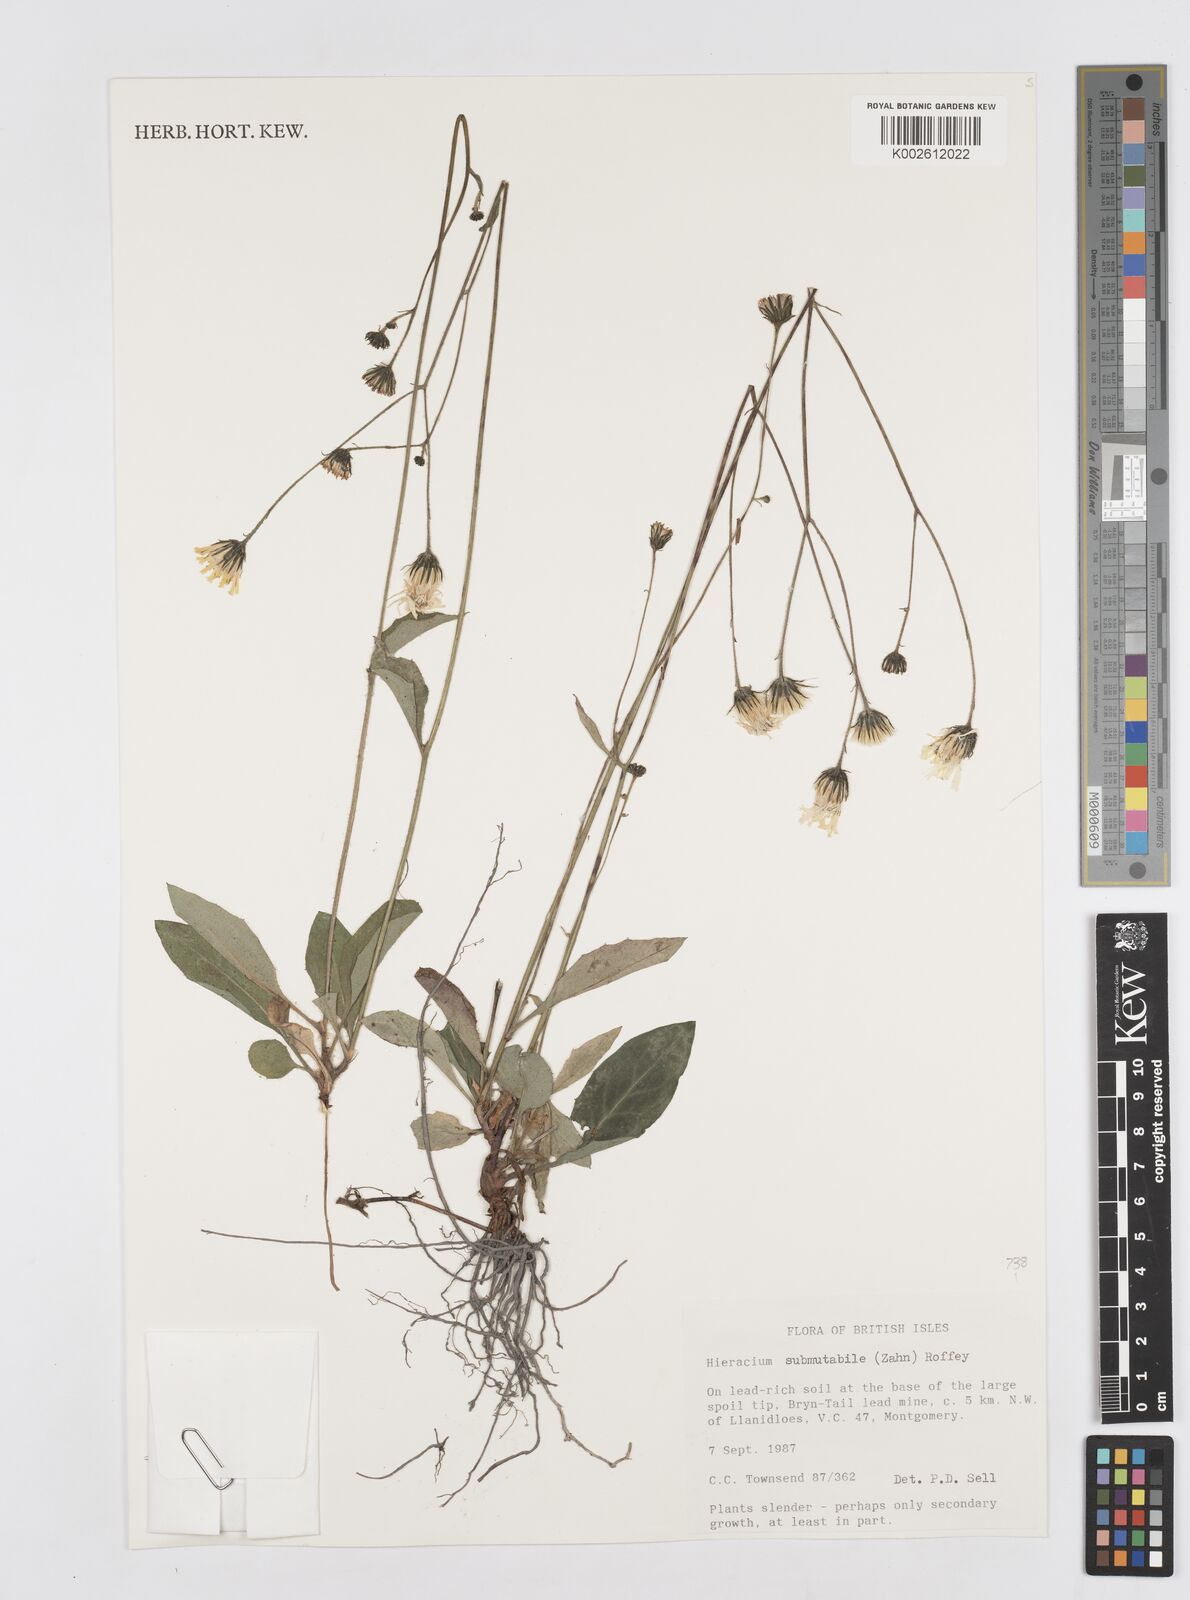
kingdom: Plantae
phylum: Tracheophyta
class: Magnoliopsida
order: Asterales
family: Asteraceae
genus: Hieracium
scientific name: Hieracium submutabile
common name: Variable hawkweed
